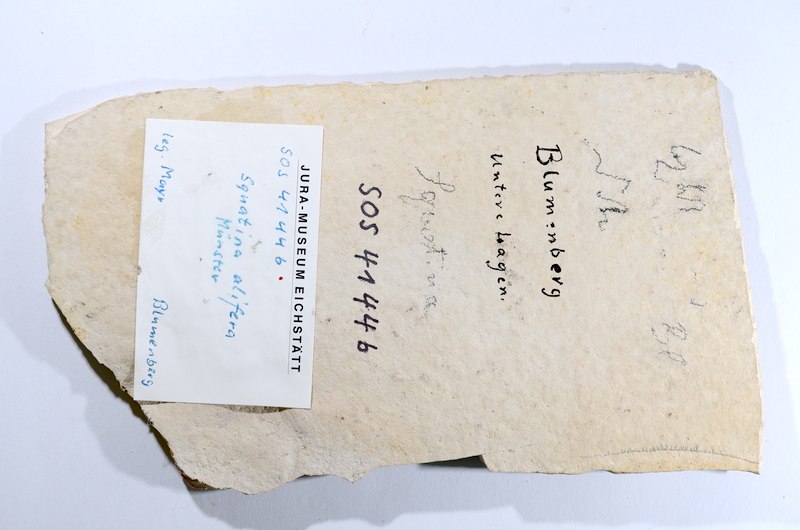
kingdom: Animalia
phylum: Chordata
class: Elasmobranchii
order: Squatiniformes
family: Pseudorhinidae
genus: Pseudorhina
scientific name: Pseudorhina alifera
